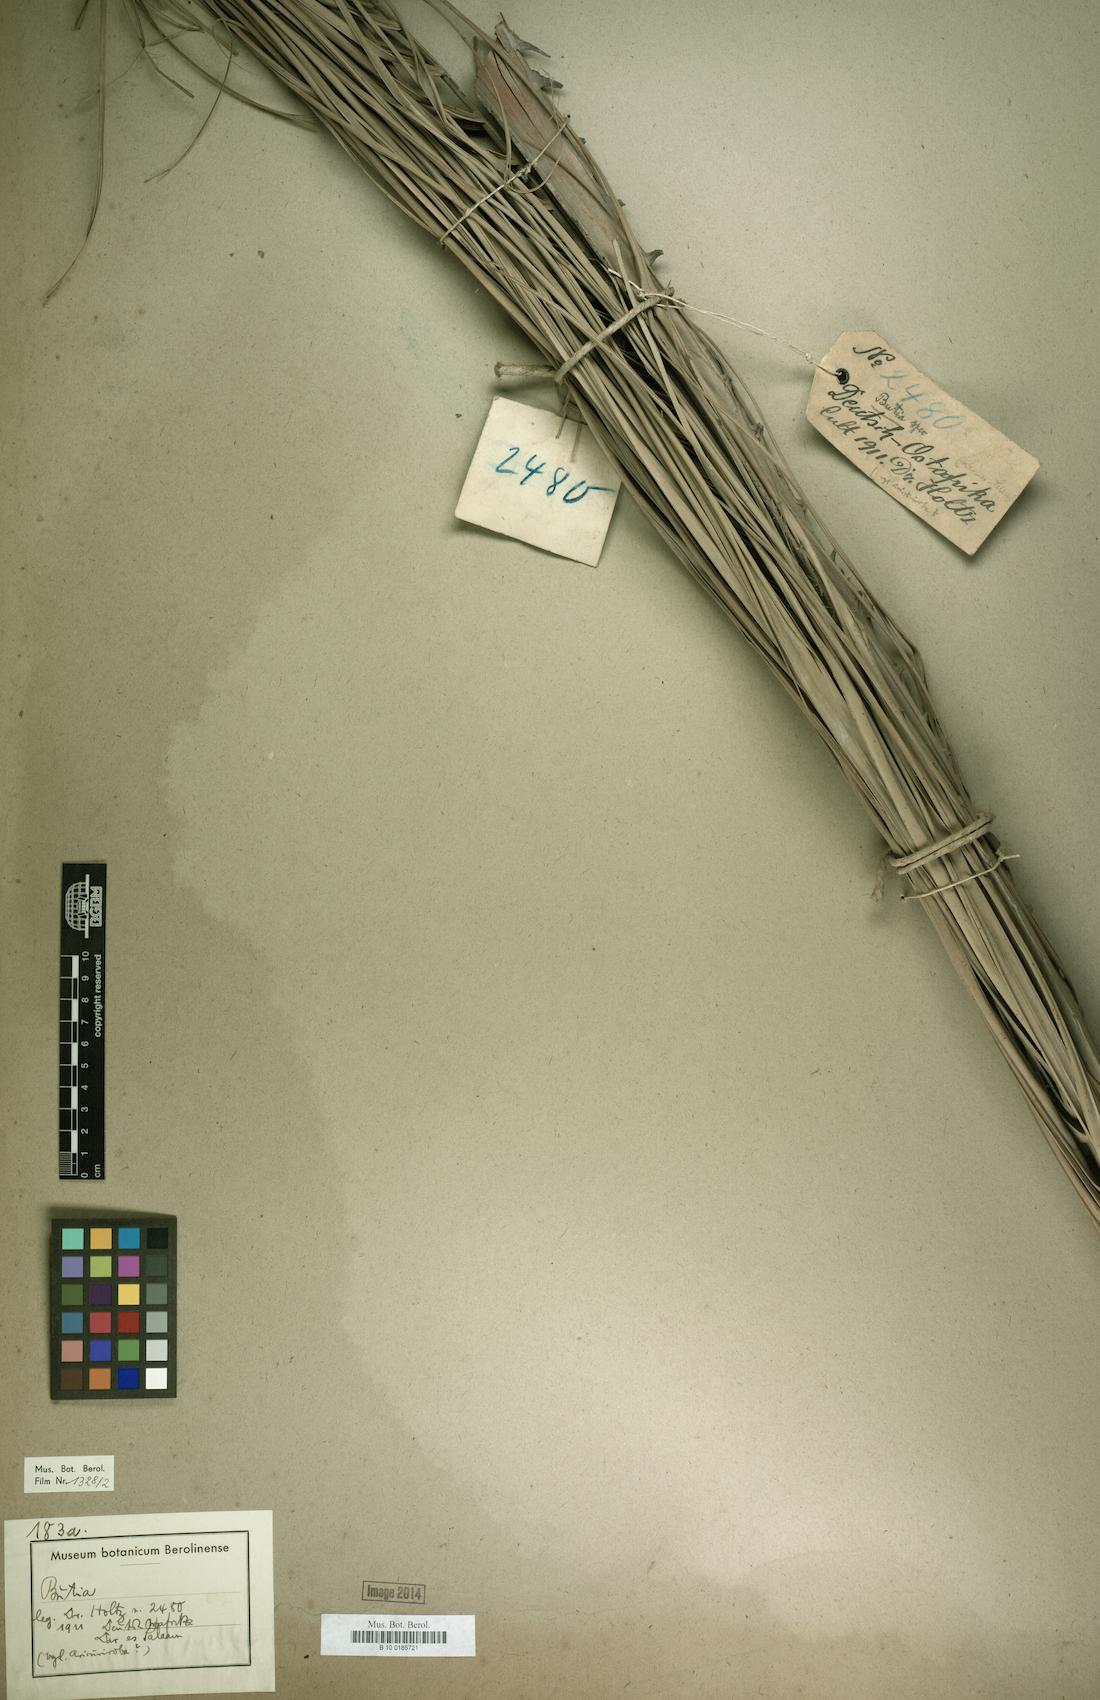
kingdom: Plantae
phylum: Tracheophyta
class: Liliopsida
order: Arecales
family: Arecaceae
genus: Butia
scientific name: Butia
